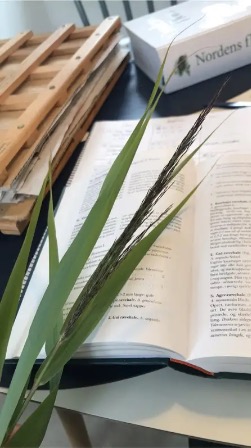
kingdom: Plantae
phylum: Tracheophyta
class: Liliopsida
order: Poales
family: Poaceae
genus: Phragmites
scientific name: Phragmites australis
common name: Tagrør
